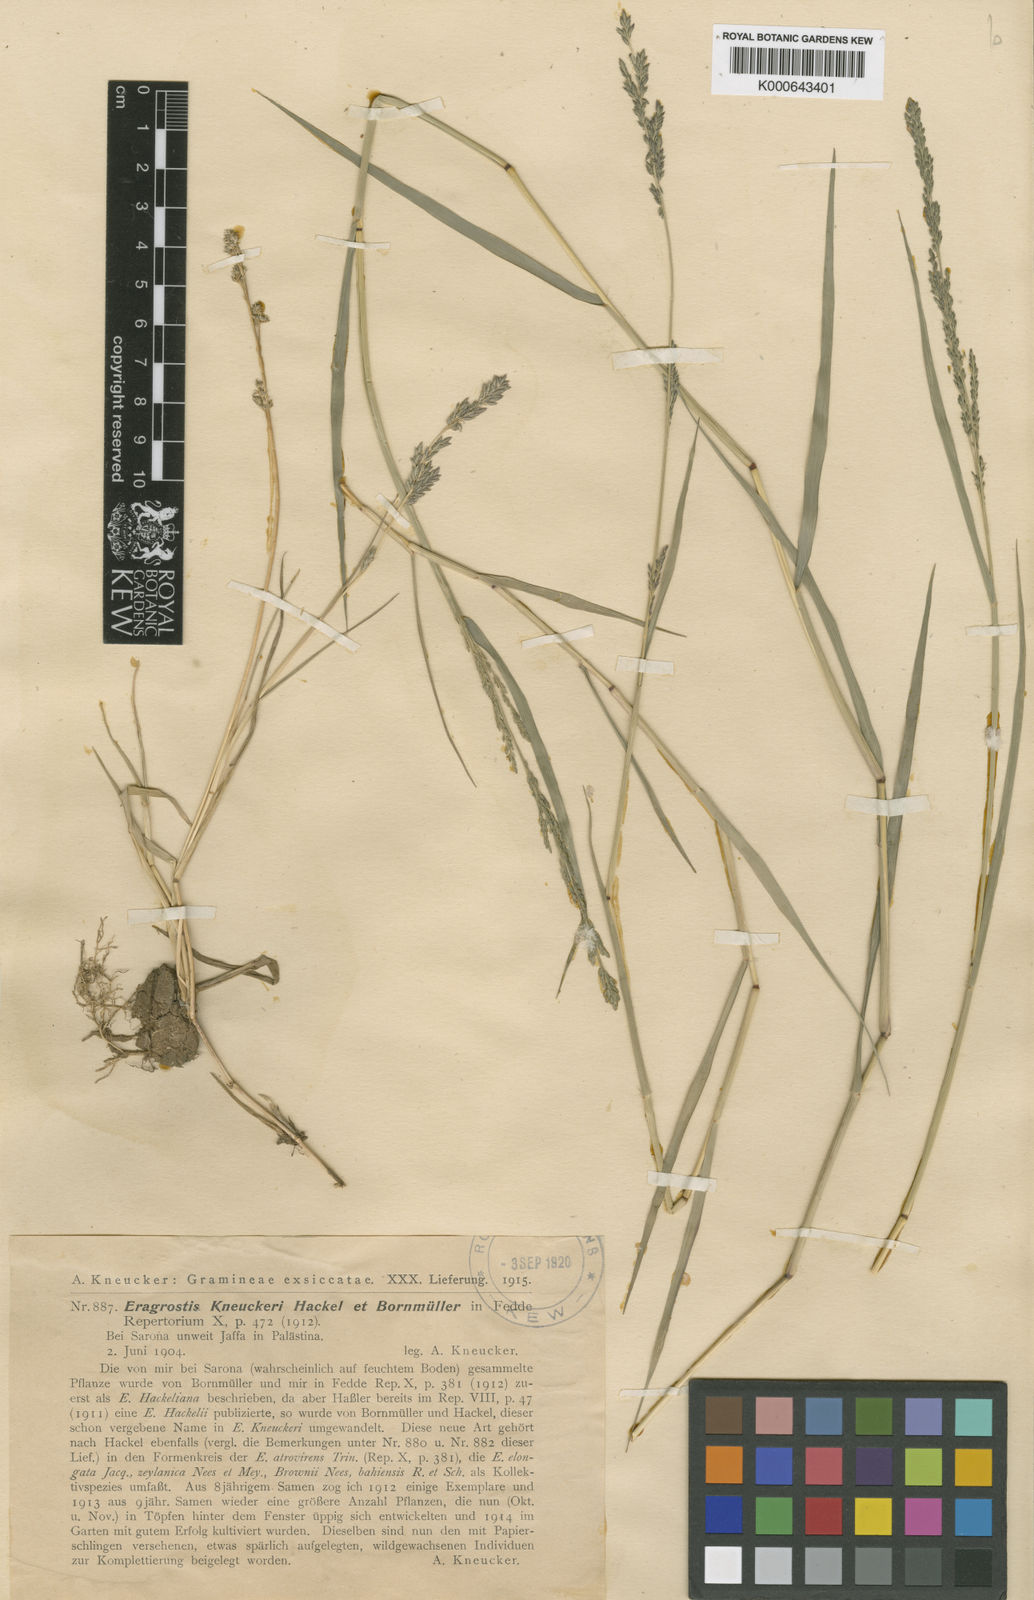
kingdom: Plantae
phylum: Tracheophyta
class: Liliopsida
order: Poales
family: Poaceae
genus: Eragrostis
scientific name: Eragrostis sarmentosa
